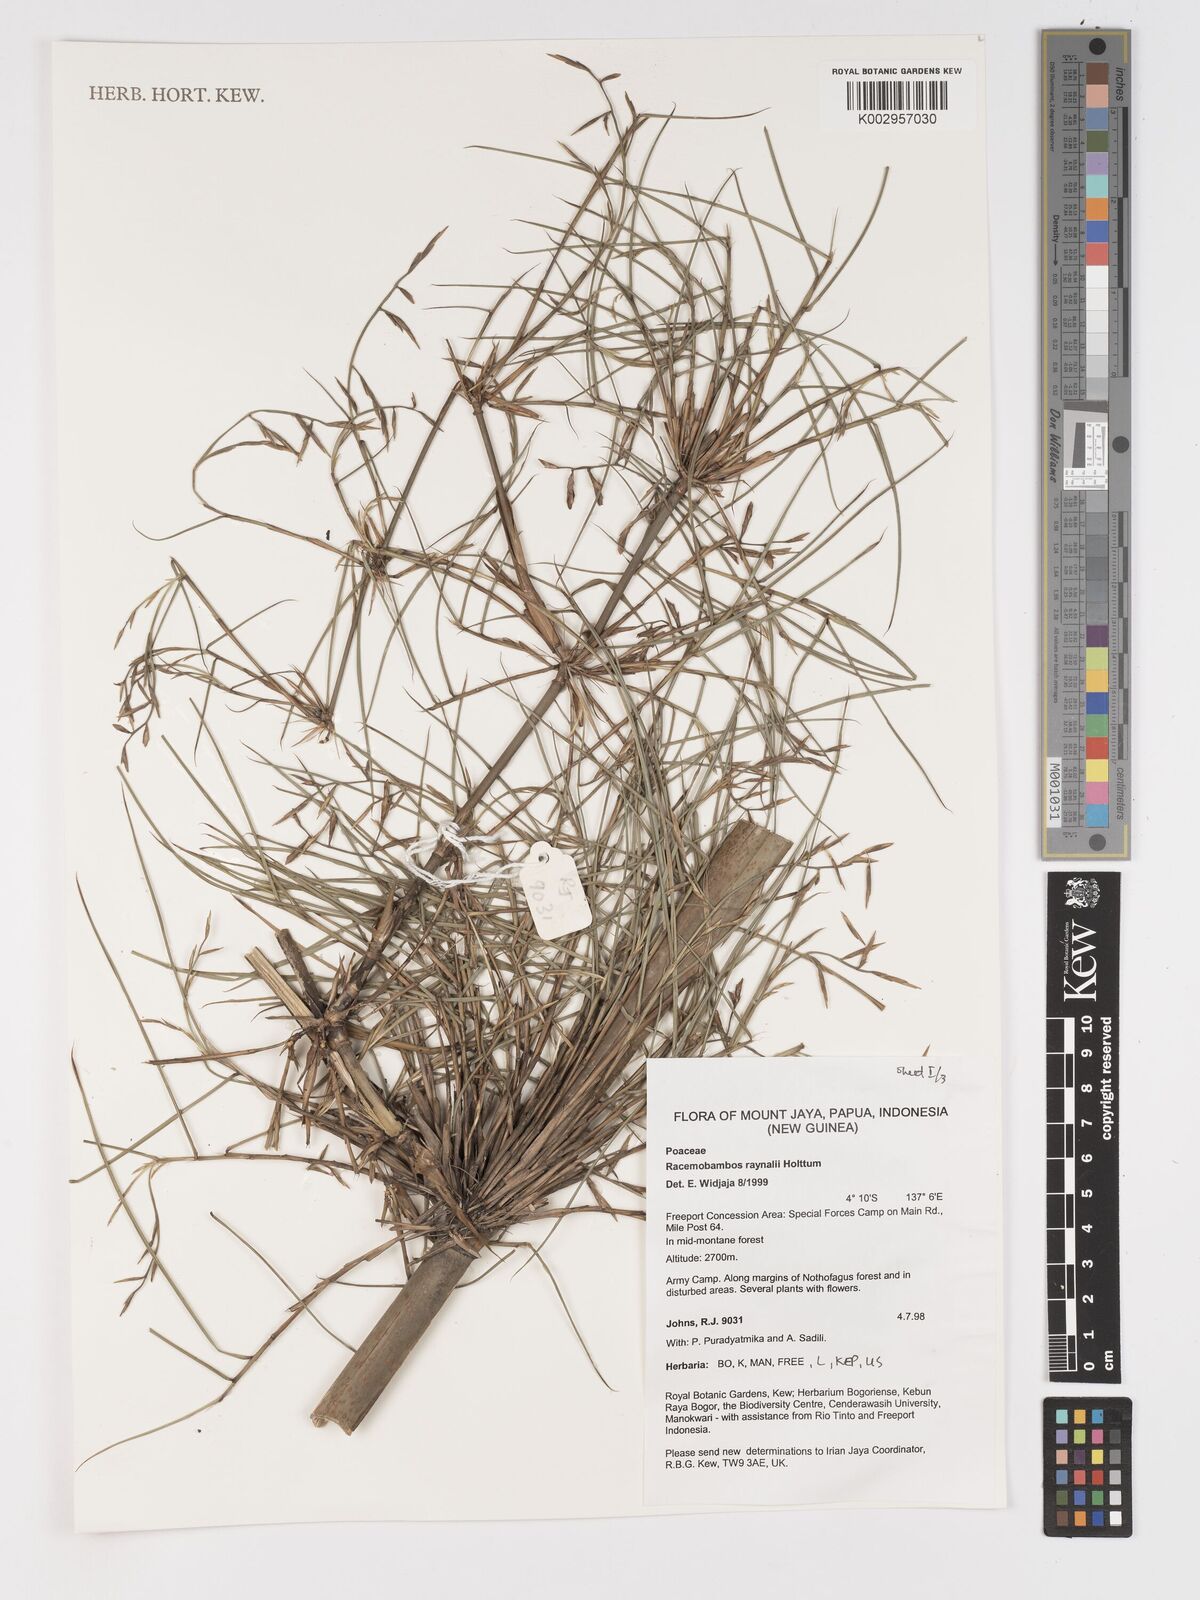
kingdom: Plantae
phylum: Tracheophyta
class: Liliopsida
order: Poales
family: Poaceae
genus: Racemobambos
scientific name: Racemobambos raynalii
